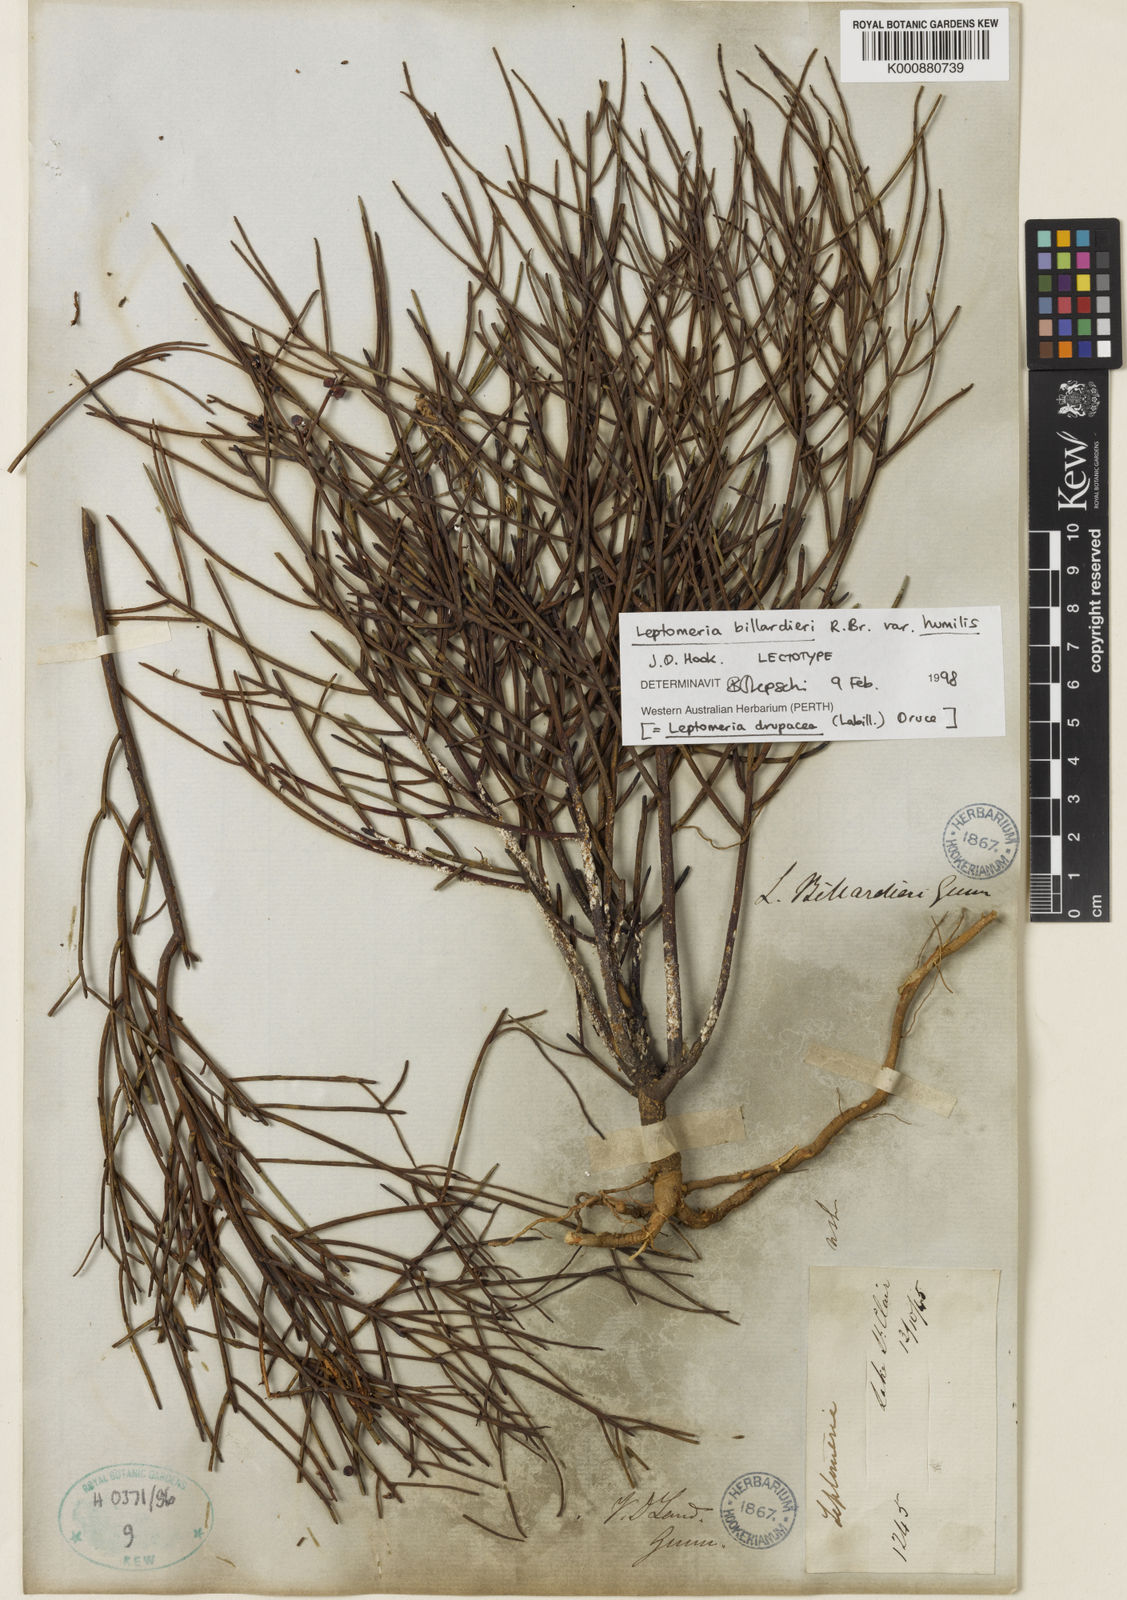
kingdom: Plantae
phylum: Tracheophyta
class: Magnoliopsida
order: Santalales
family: Amphorogynaceae
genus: Leptomeria
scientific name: Leptomeria drupacea
